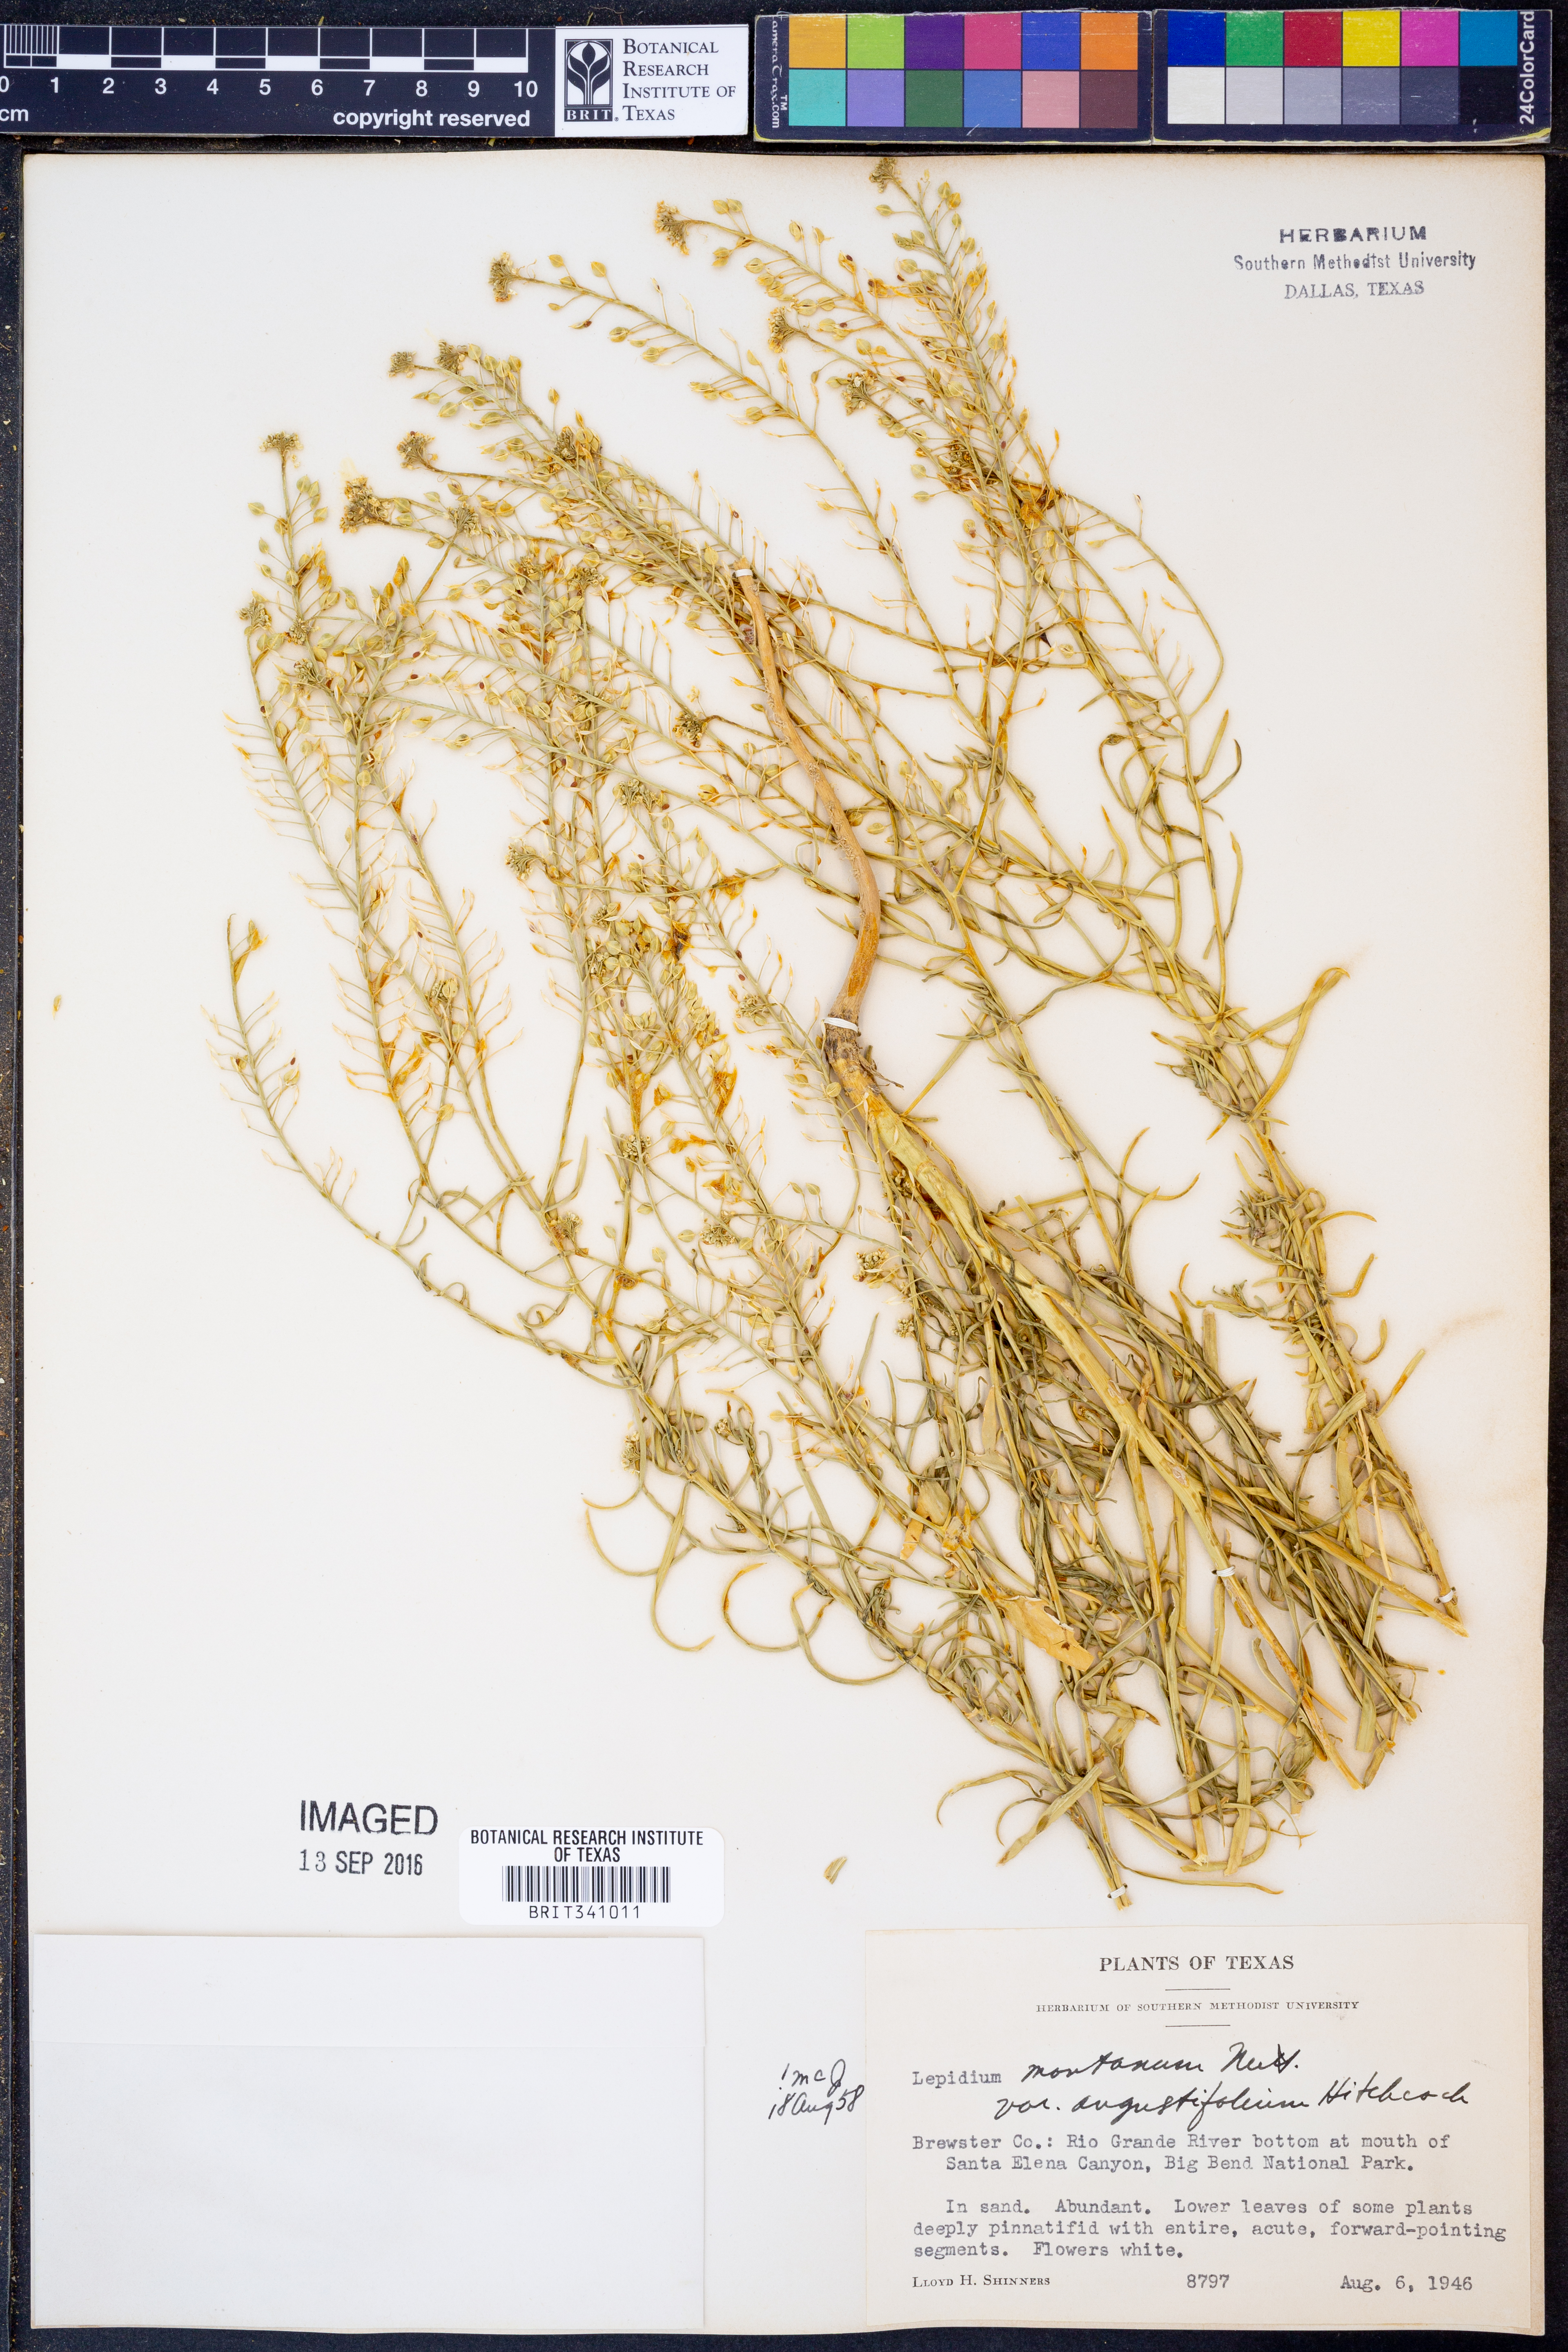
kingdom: Plantae
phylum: Tracheophyta
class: Magnoliopsida
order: Brassicales
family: Brassicaceae
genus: Lepidium
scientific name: Lepidium alyssoides
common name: Mesa pepperweed
